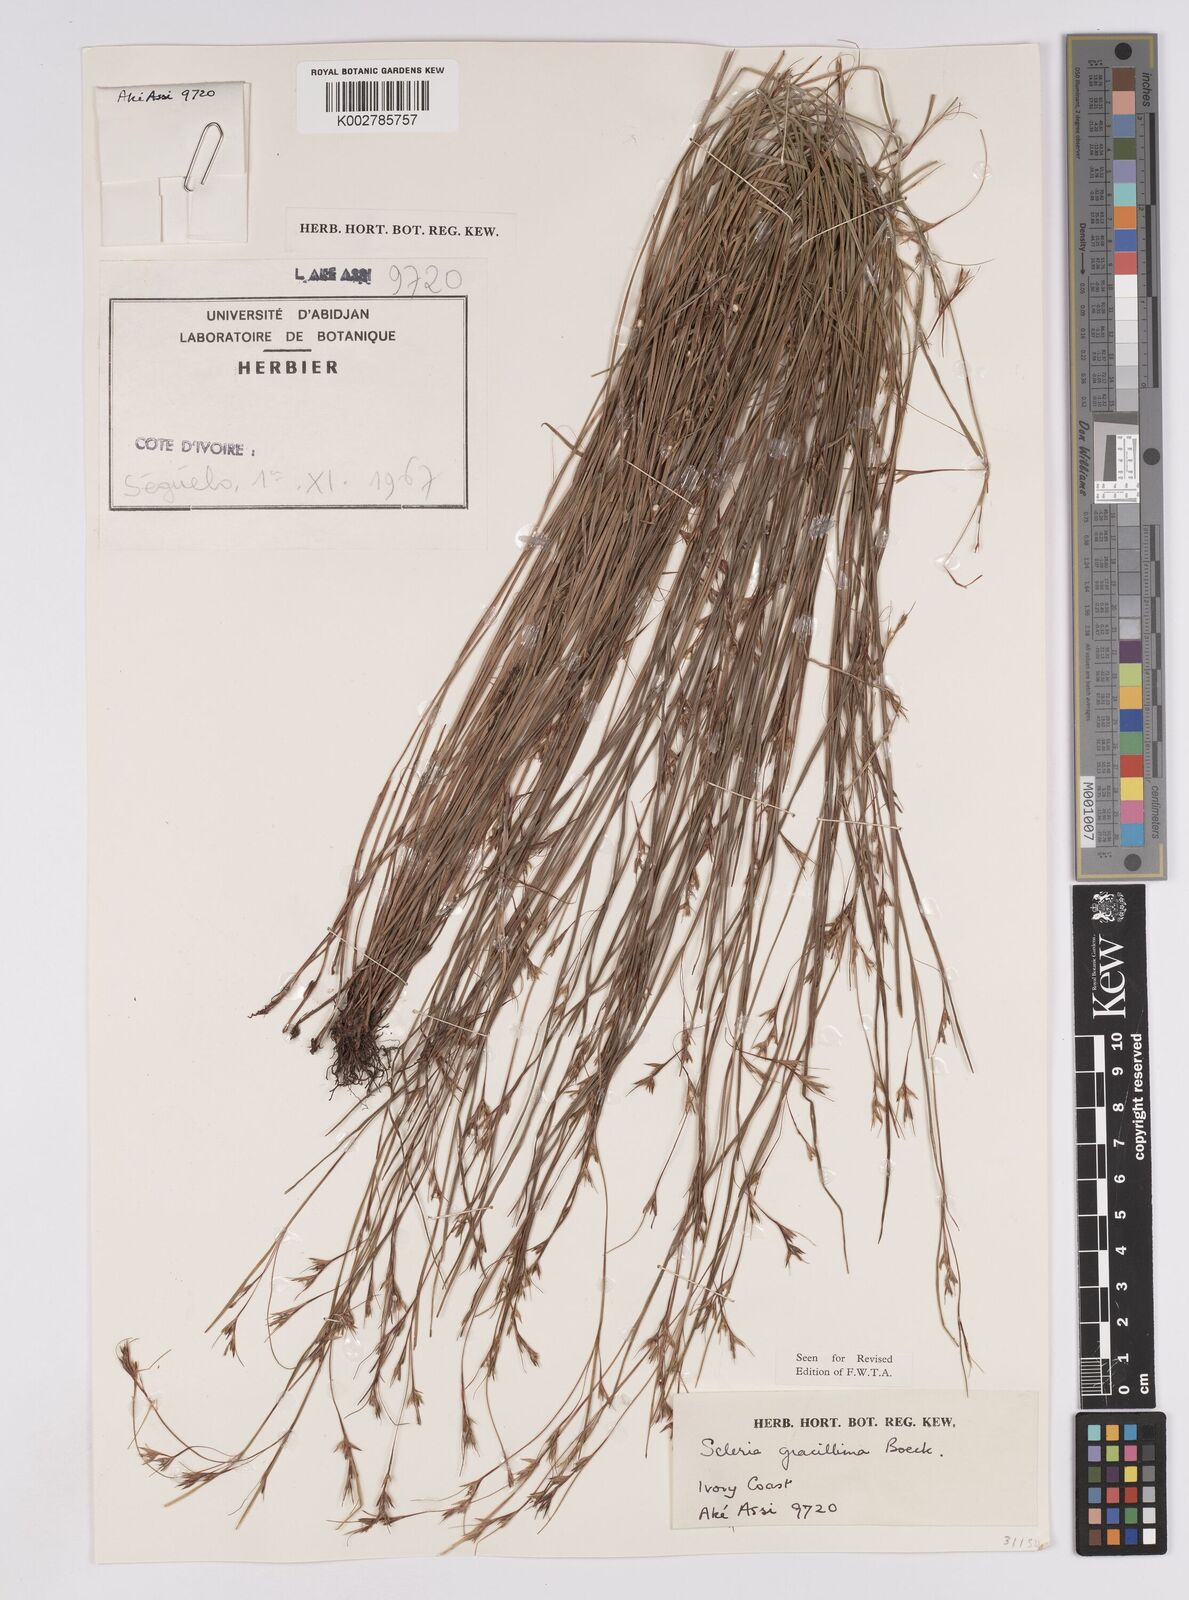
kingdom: Plantae
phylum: Tracheophyta
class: Liliopsida
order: Poales
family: Cyperaceae
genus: Scleria
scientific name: Scleria gracillima
